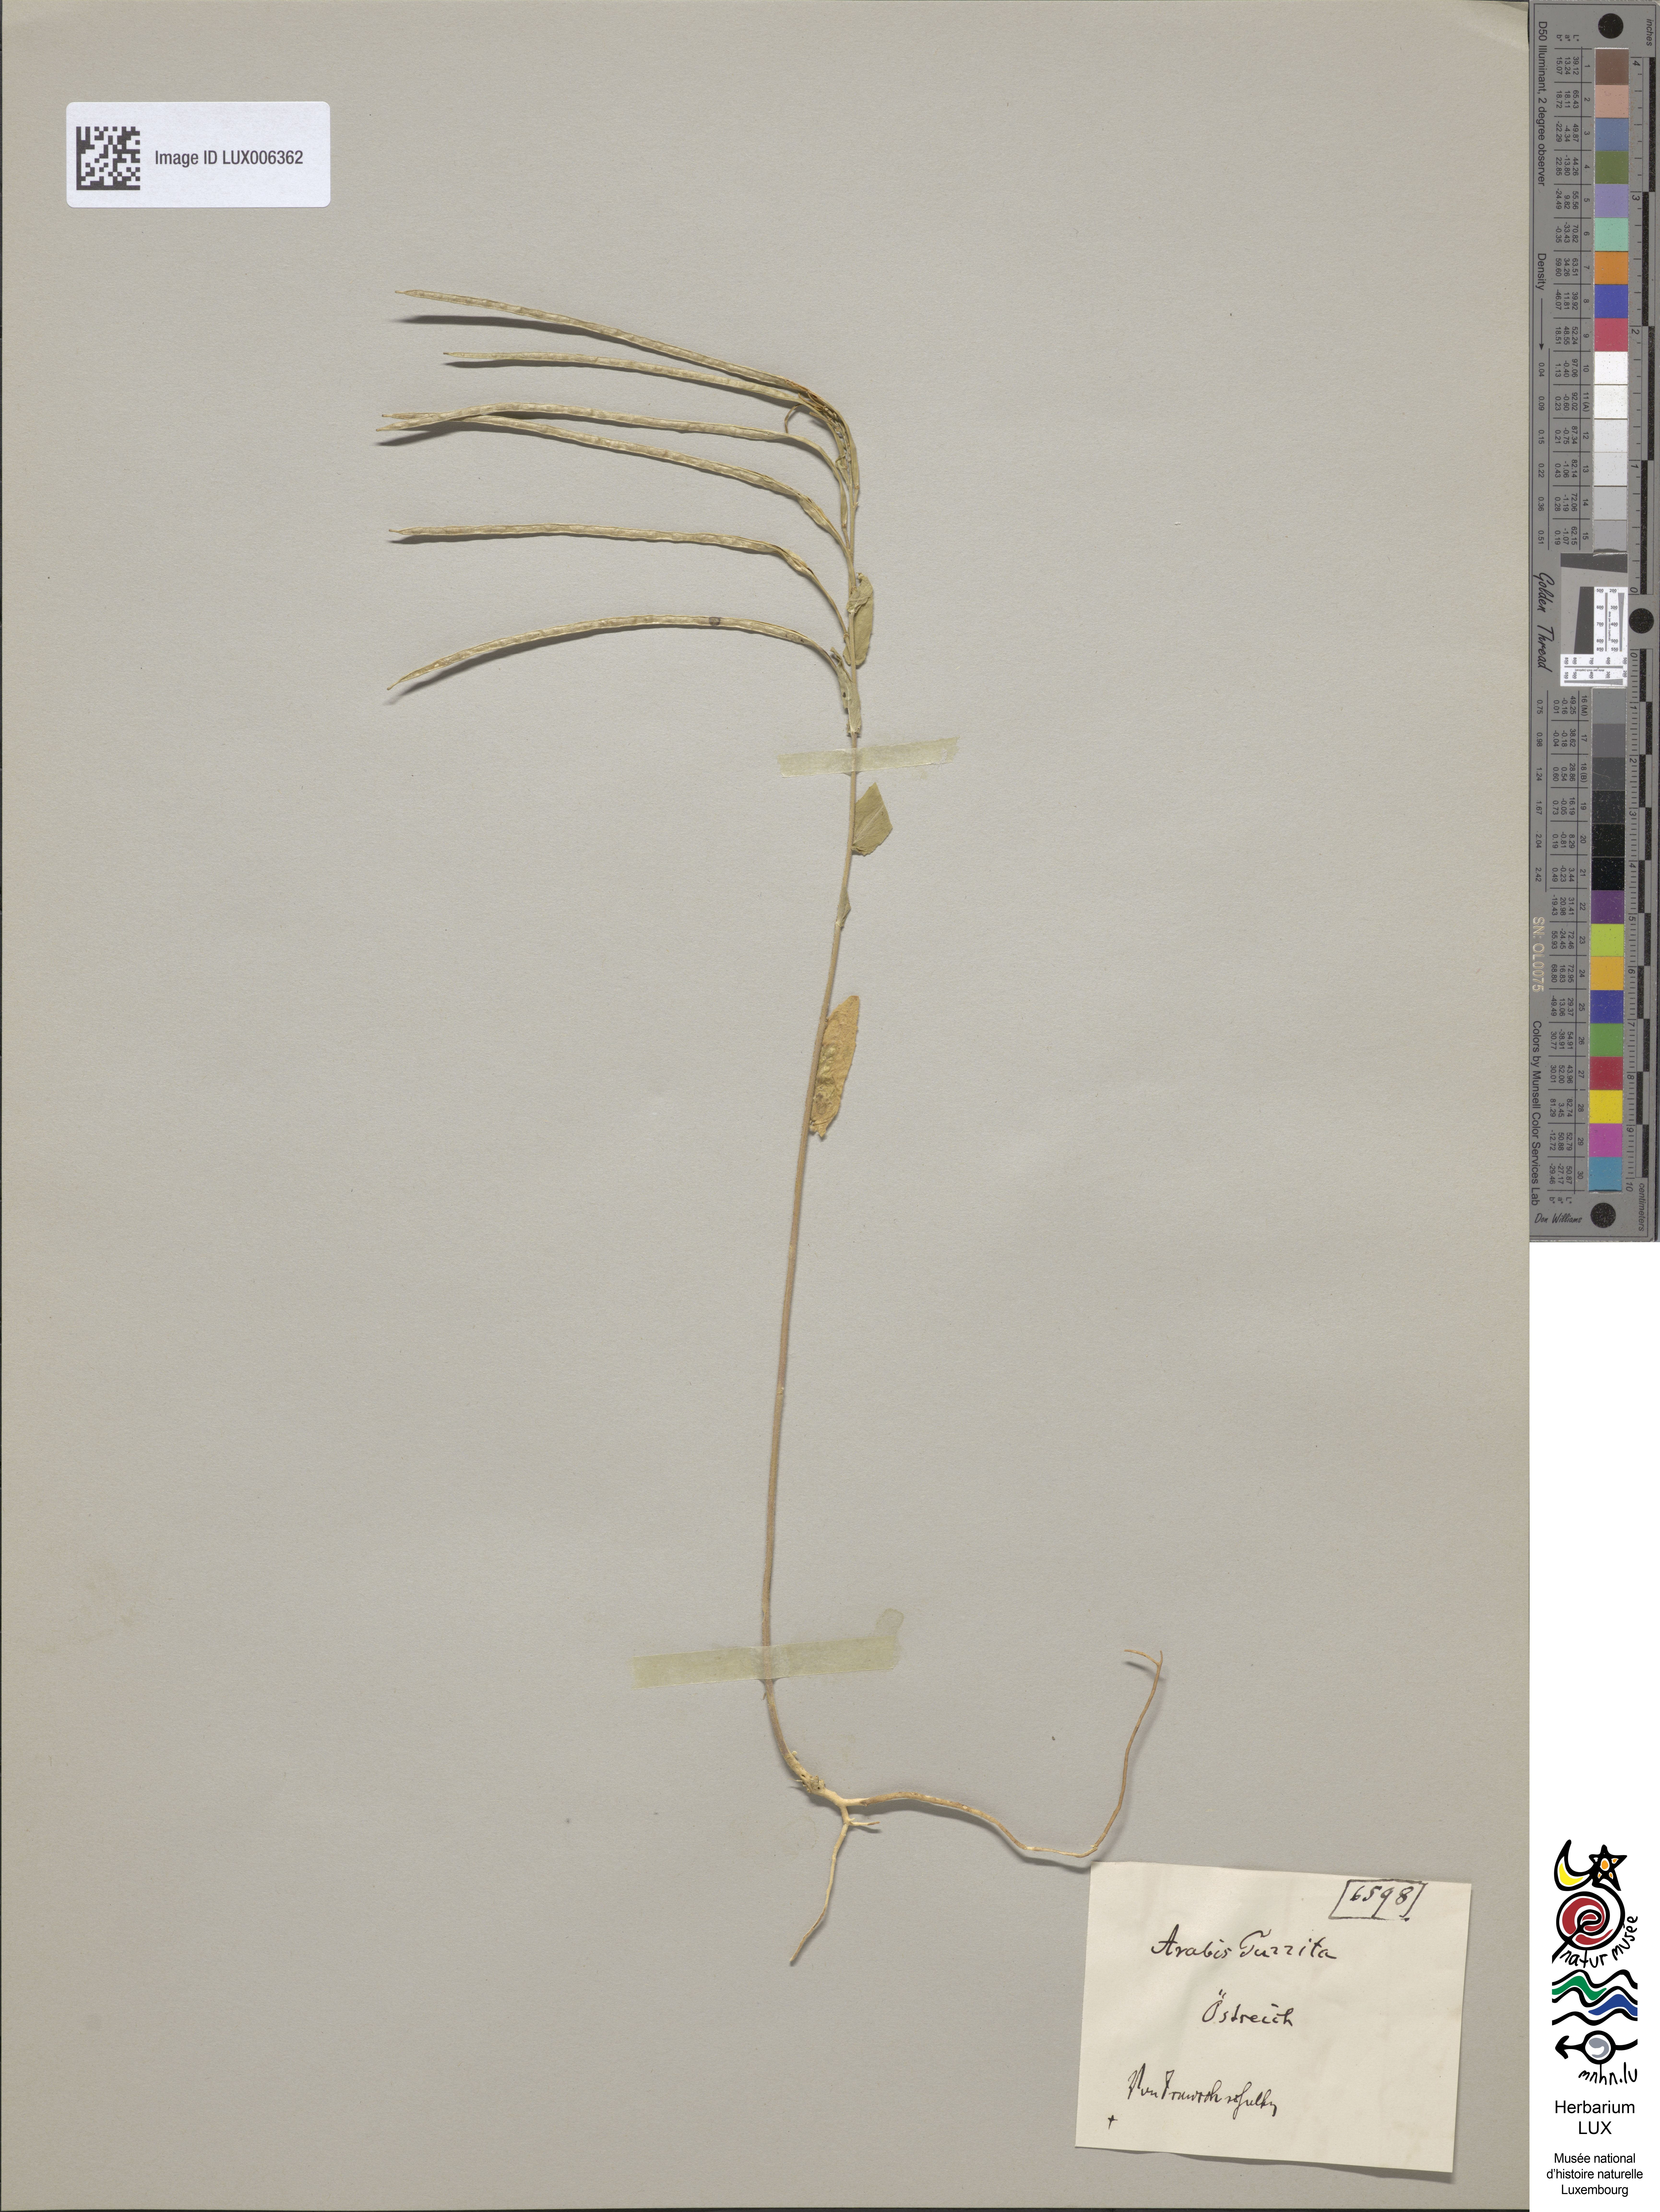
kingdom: Plantae
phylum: Tracheophyta
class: Magnoliopsida
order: Brassicales
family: Brassicaceae
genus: Pseudoturritis
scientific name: Pseudoturritis turrita
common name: Tower cress
